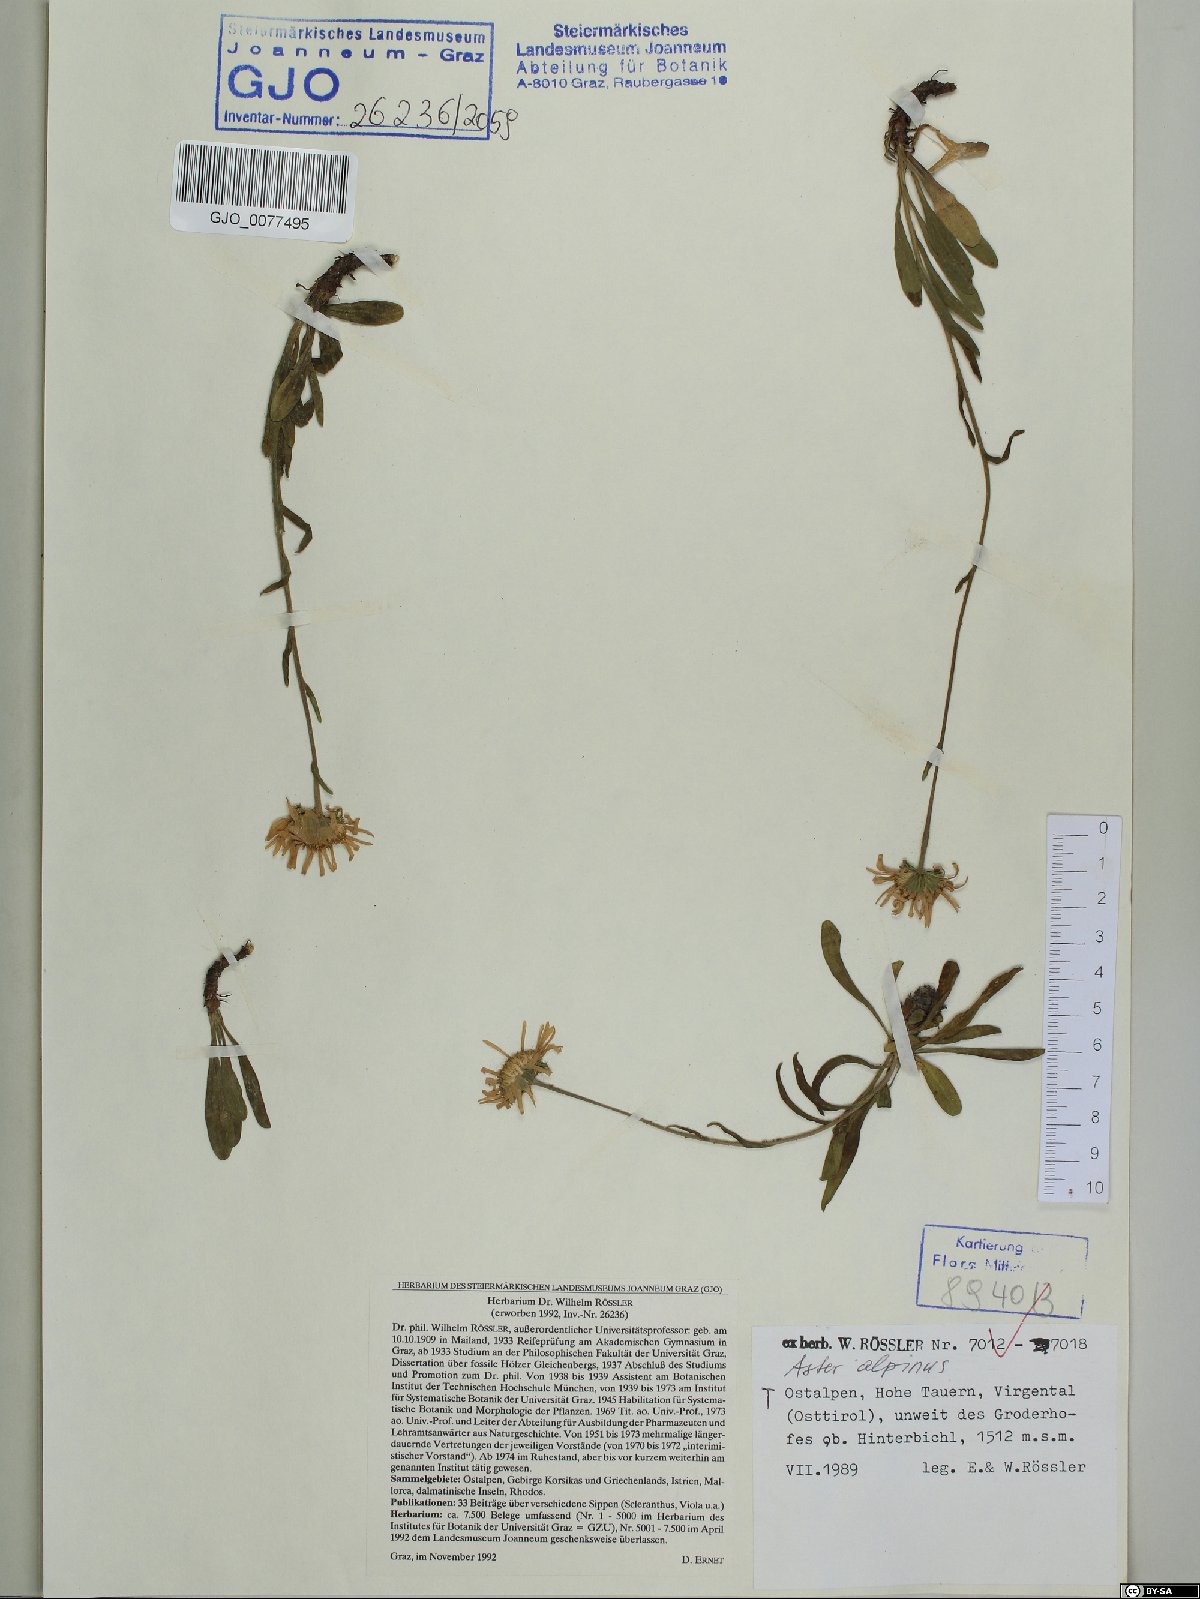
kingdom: Plantae
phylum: Tracheophyta
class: Magnoliopsida
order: Asterales
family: Asteraceae
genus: Aster
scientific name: Aster alpinus
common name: Alpine aster
